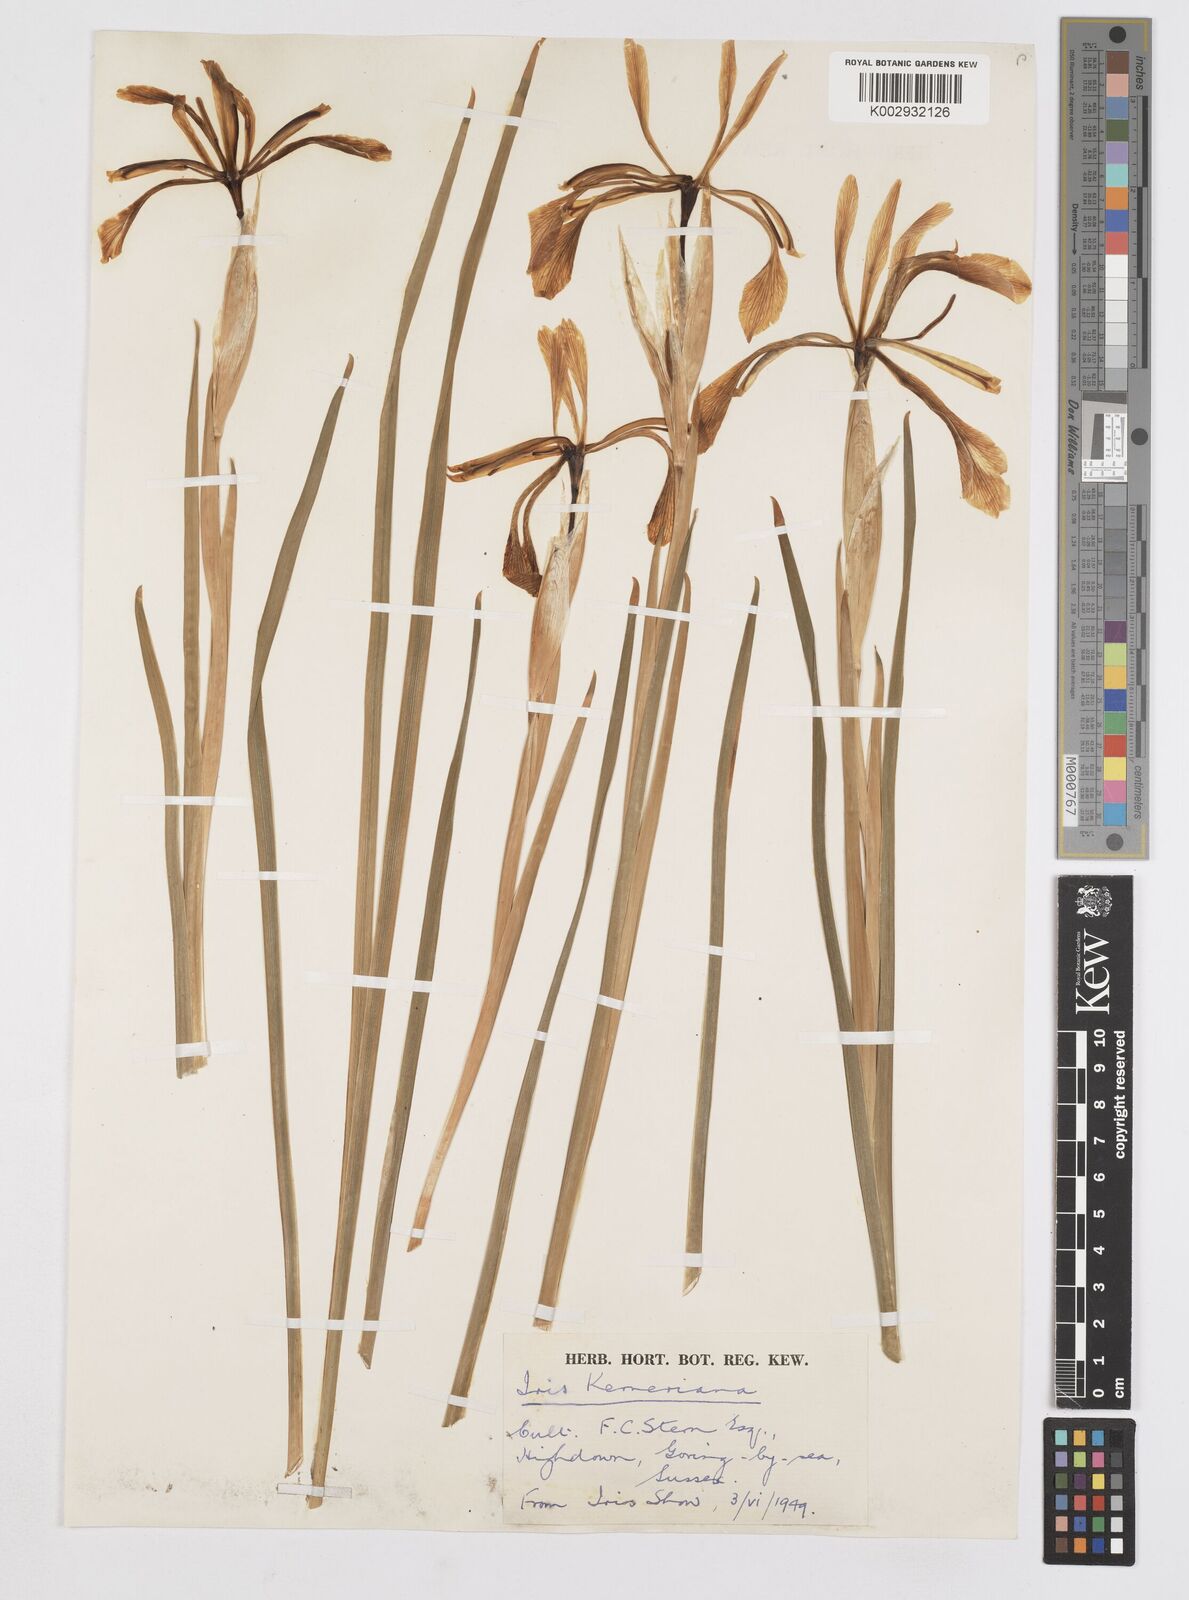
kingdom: Plantae
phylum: Tracheophyta
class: Liliopsida
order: Asparagales
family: Iridaceae
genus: Iris
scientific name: Iris haussknechtii
